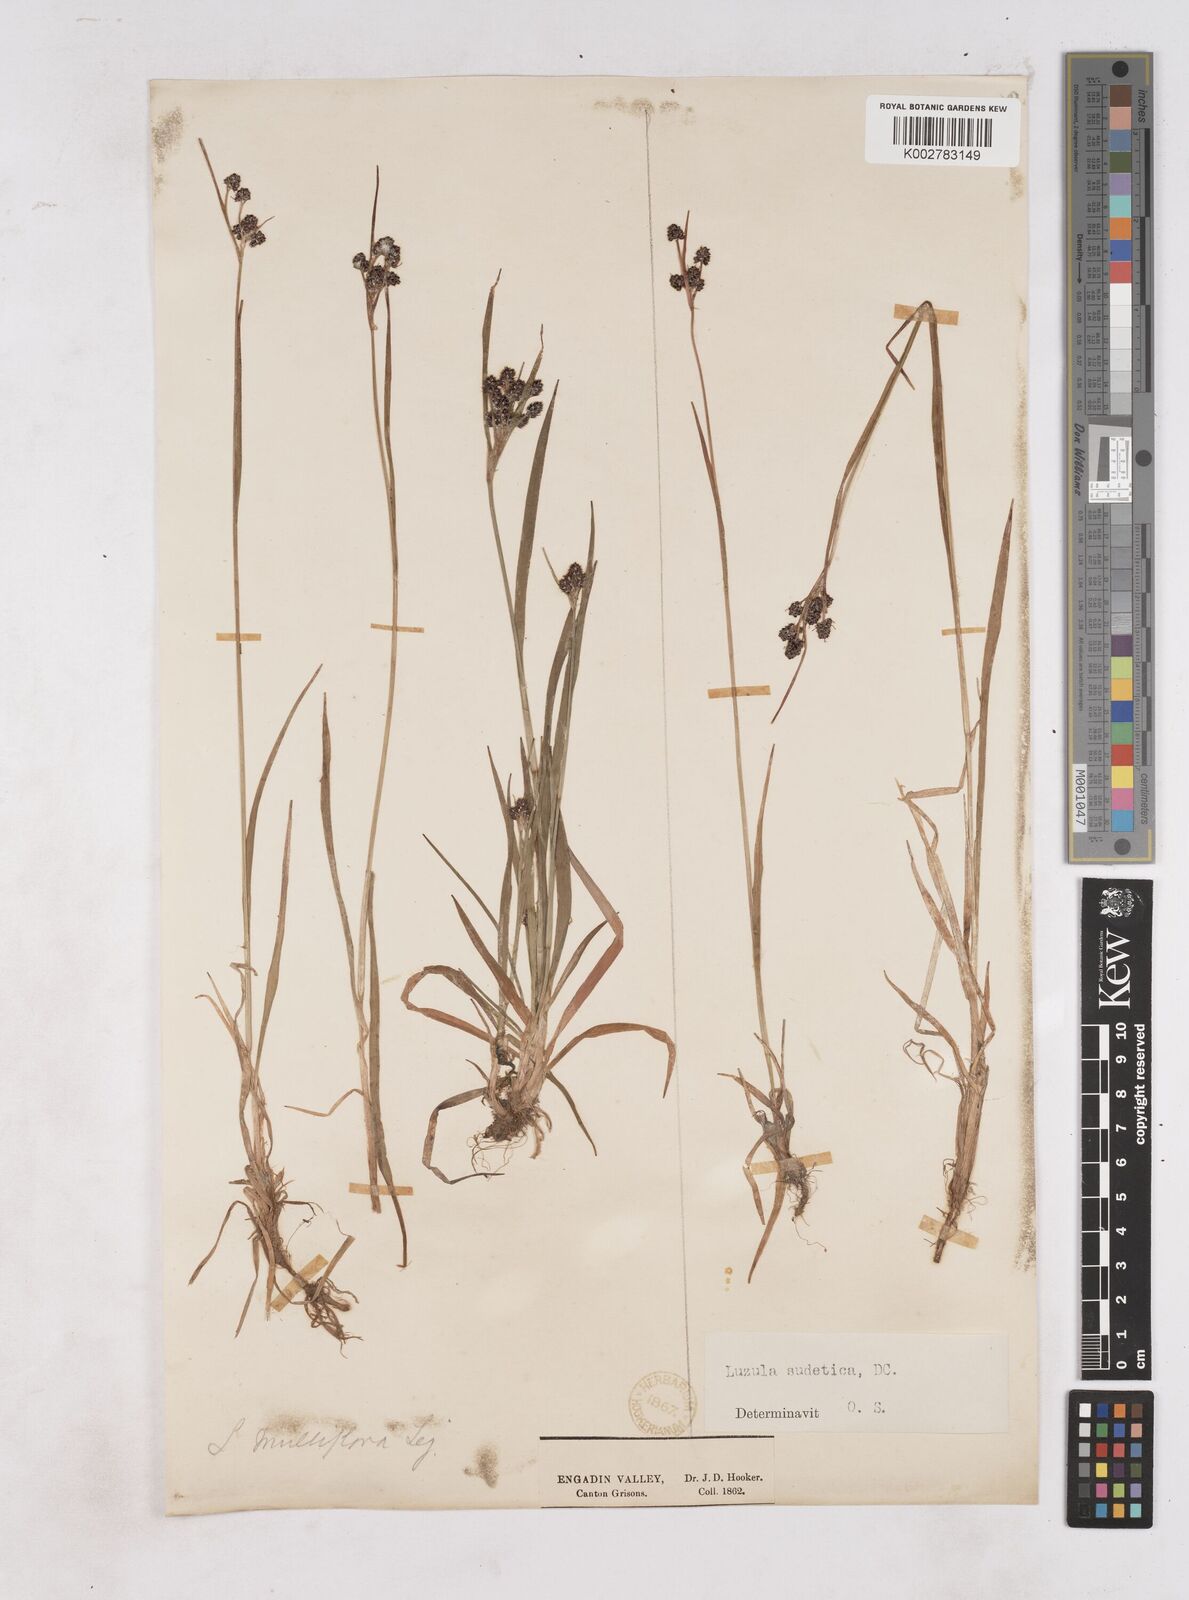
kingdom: Plantae
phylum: Tracheophyta
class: Liliopsida
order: Poales
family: Juncaceae
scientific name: Juncaceae
